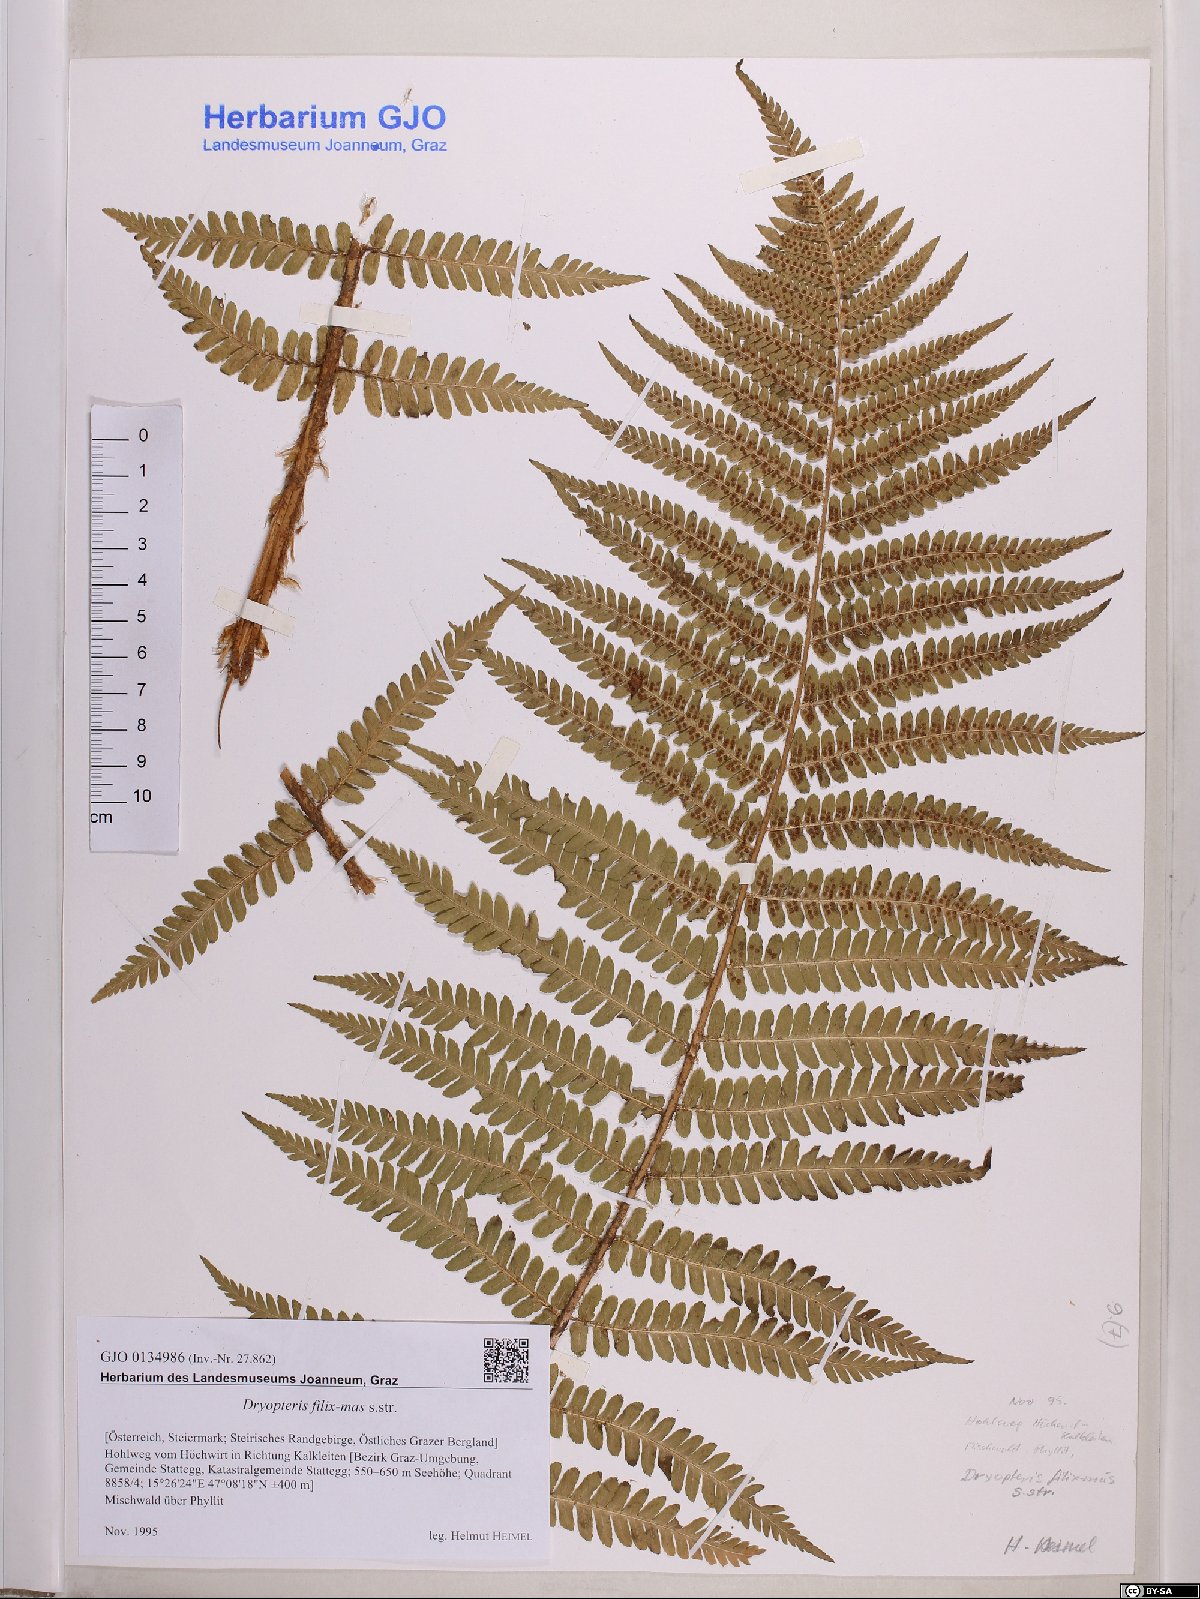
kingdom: Plantae
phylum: Tracheophyta
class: Polypodiopsida
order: Polypodiales
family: Dryopteridaceae
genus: Dryopteris
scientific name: Dryopteris filix-mas
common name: Male fern
